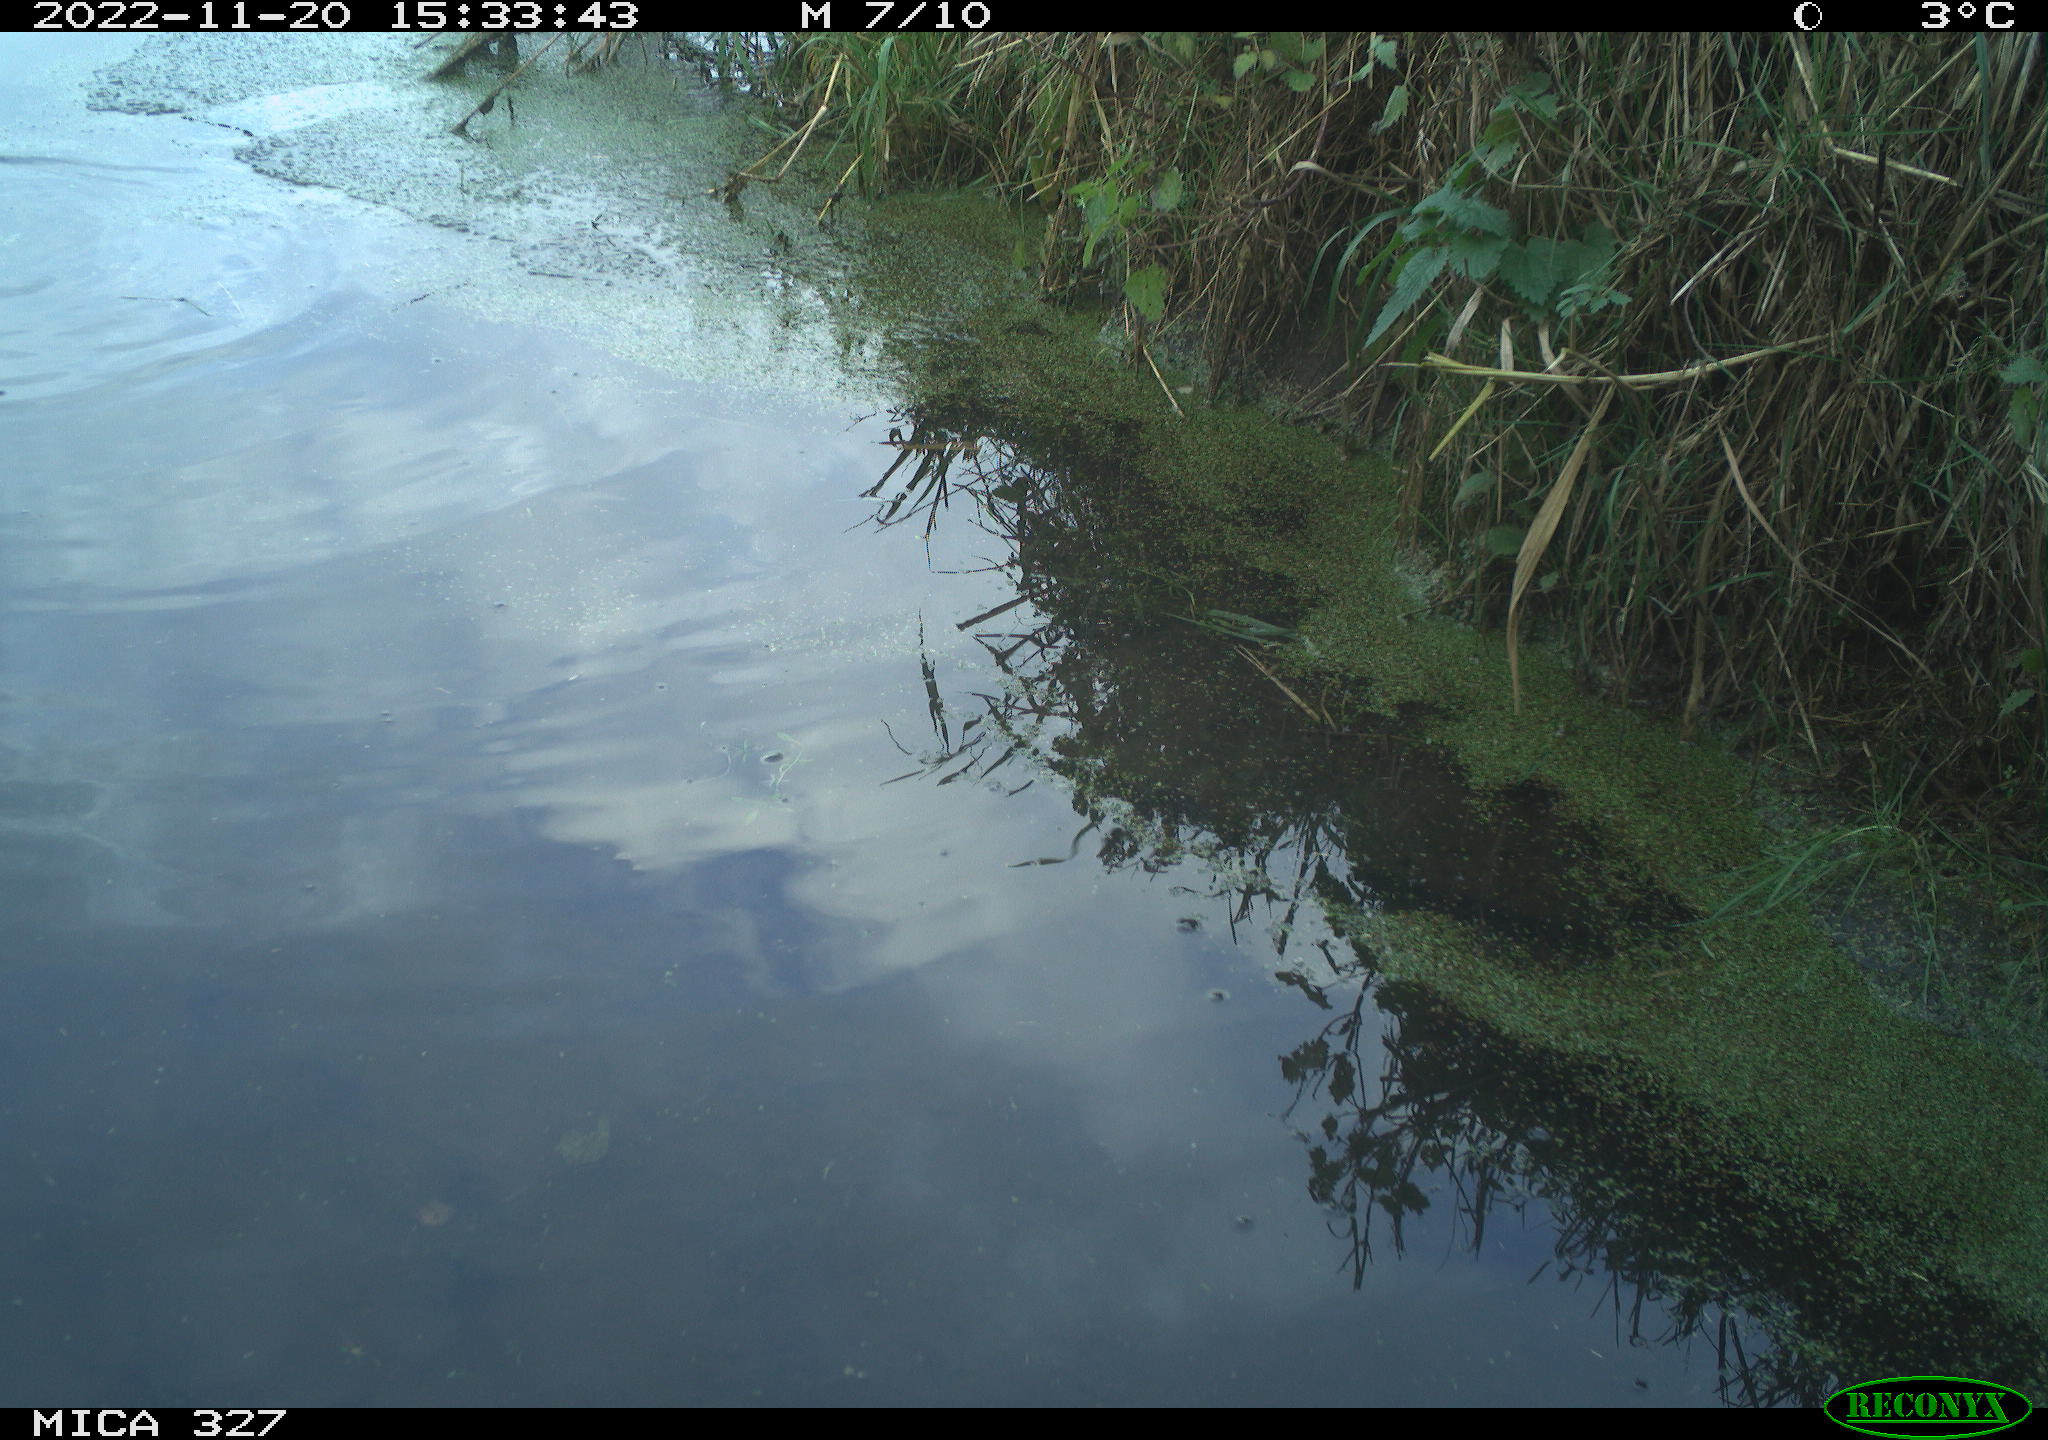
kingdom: Animalia
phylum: Chordata
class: Aves
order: Gruiformes
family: Rallidae
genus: Gallinula
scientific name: Gallinula chloropus
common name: Common moorhen
